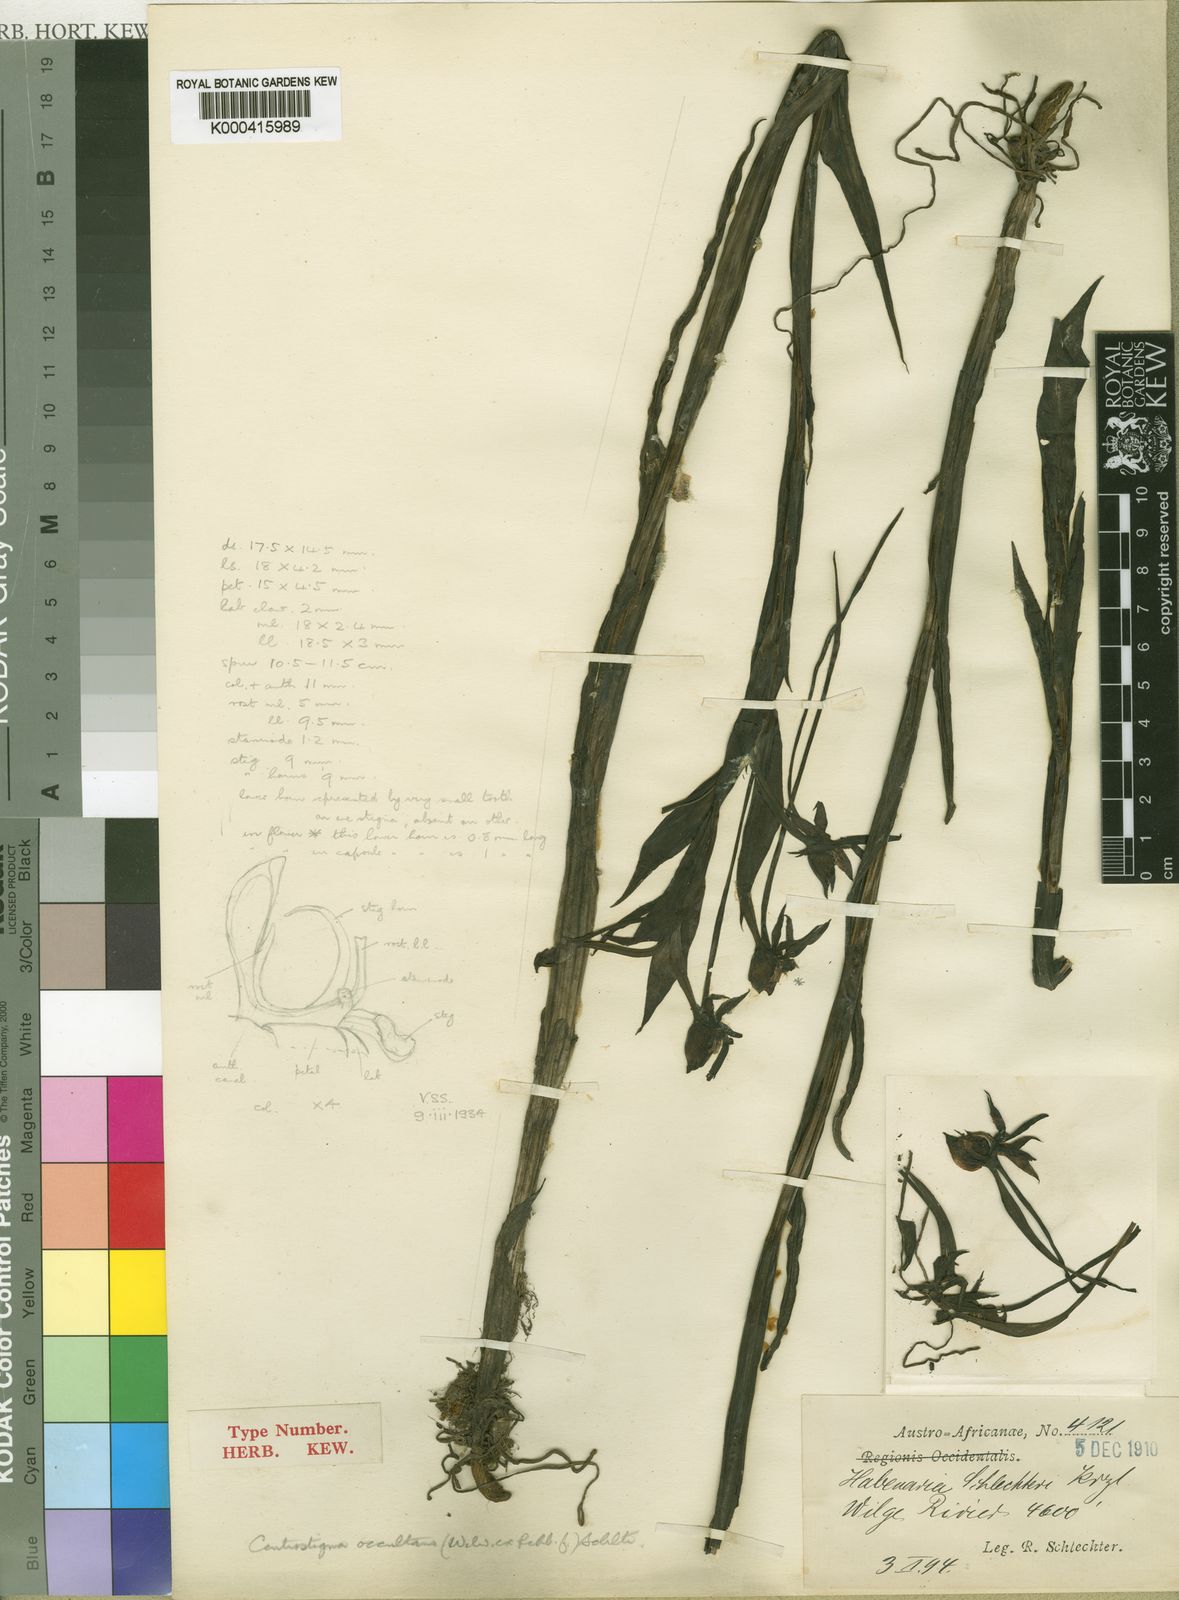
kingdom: Plantae
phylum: Tracheophyta
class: Liliopsida
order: Asparagales
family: Orchidaceae
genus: Centrostigma
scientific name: Centrostigma occultans
